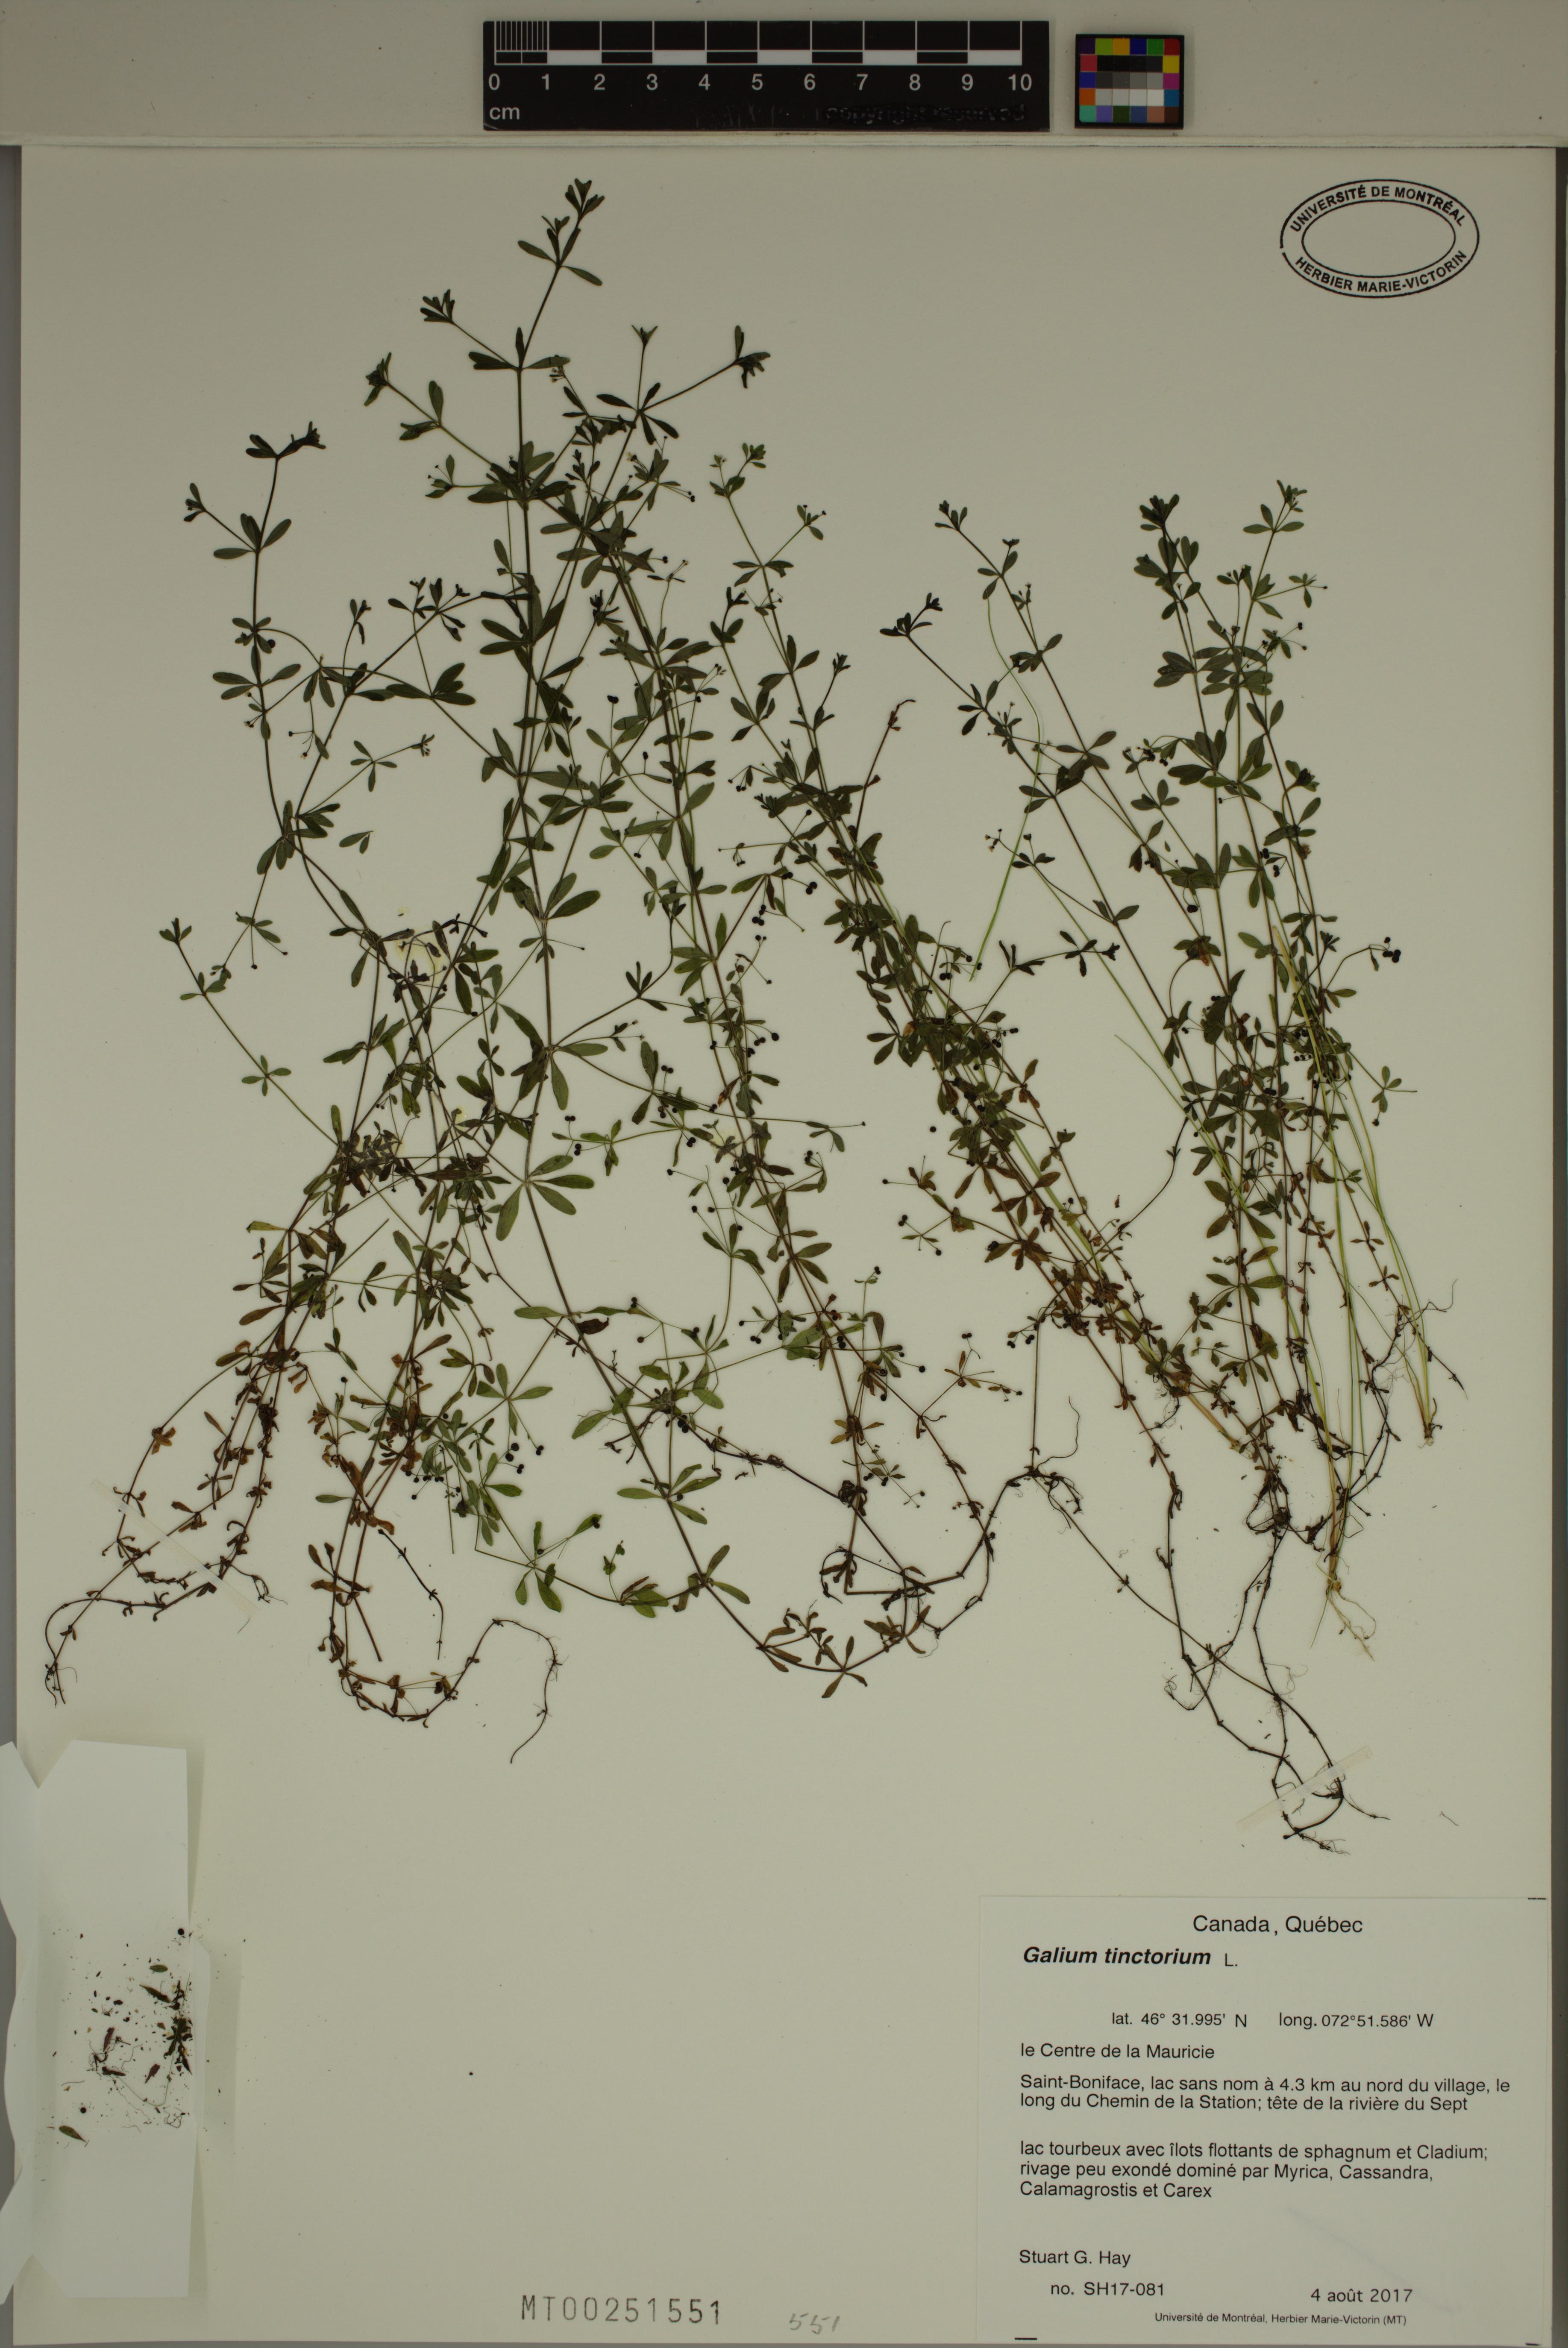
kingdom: Plantae
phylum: Tracheophyta
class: Magnoliopsida
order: Gentianales
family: Rubiaceae
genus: Galium
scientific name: Galium tinctorium
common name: Bedstraw
